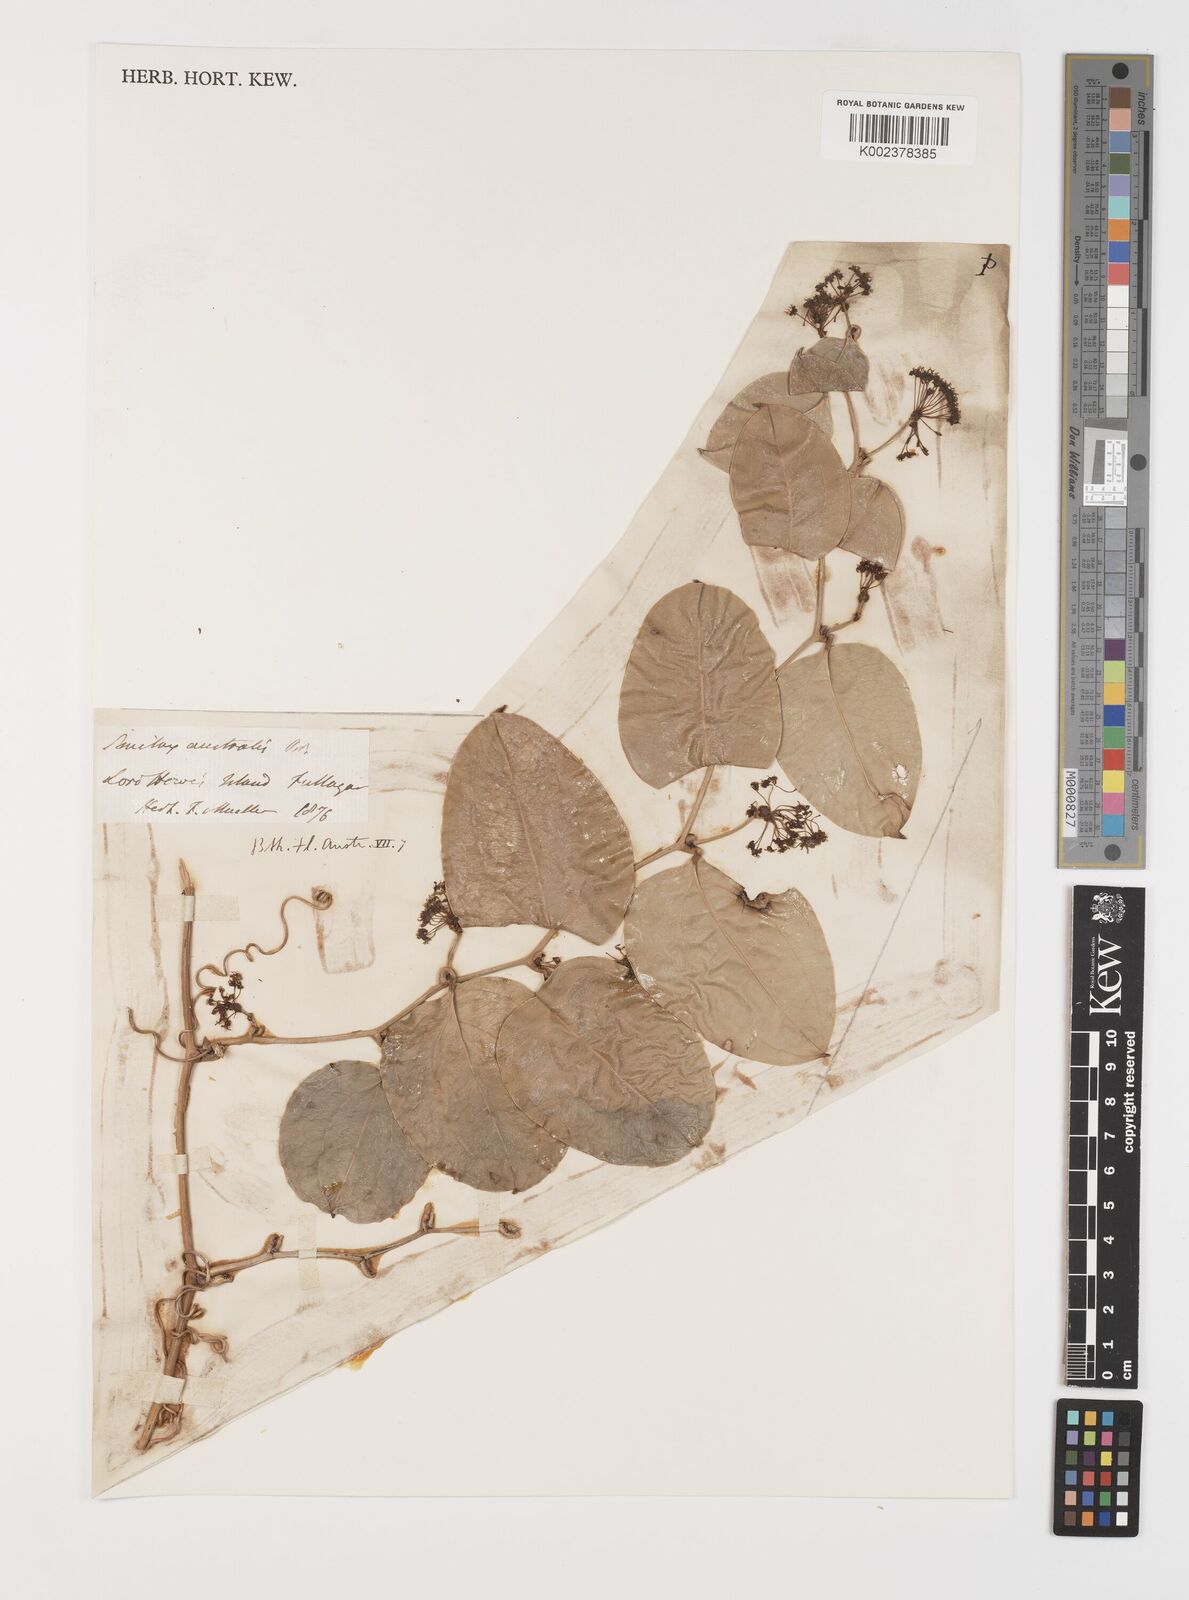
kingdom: Plantae
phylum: Tracheophyta
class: Liliopsida
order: Liliales
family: Smilacaceae
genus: Smilax
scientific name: Smilax australis
